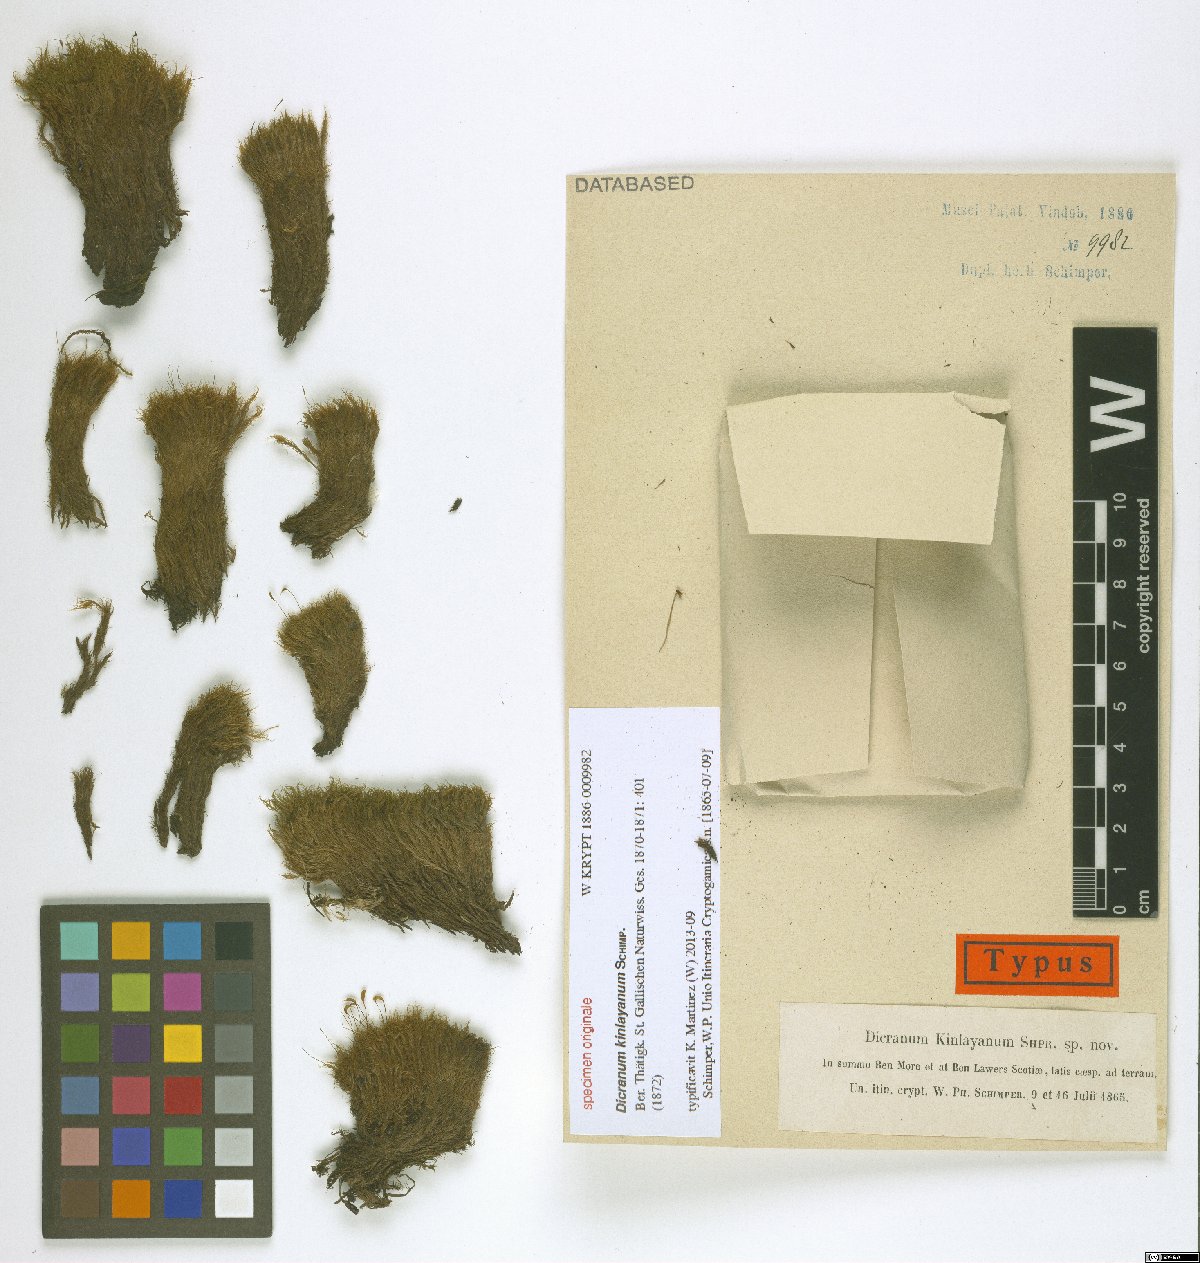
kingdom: Plantae
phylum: Bryophyta
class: Bryopsida
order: Dicranales
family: Dicranaceae
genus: Dicranum
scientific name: Dicranum
